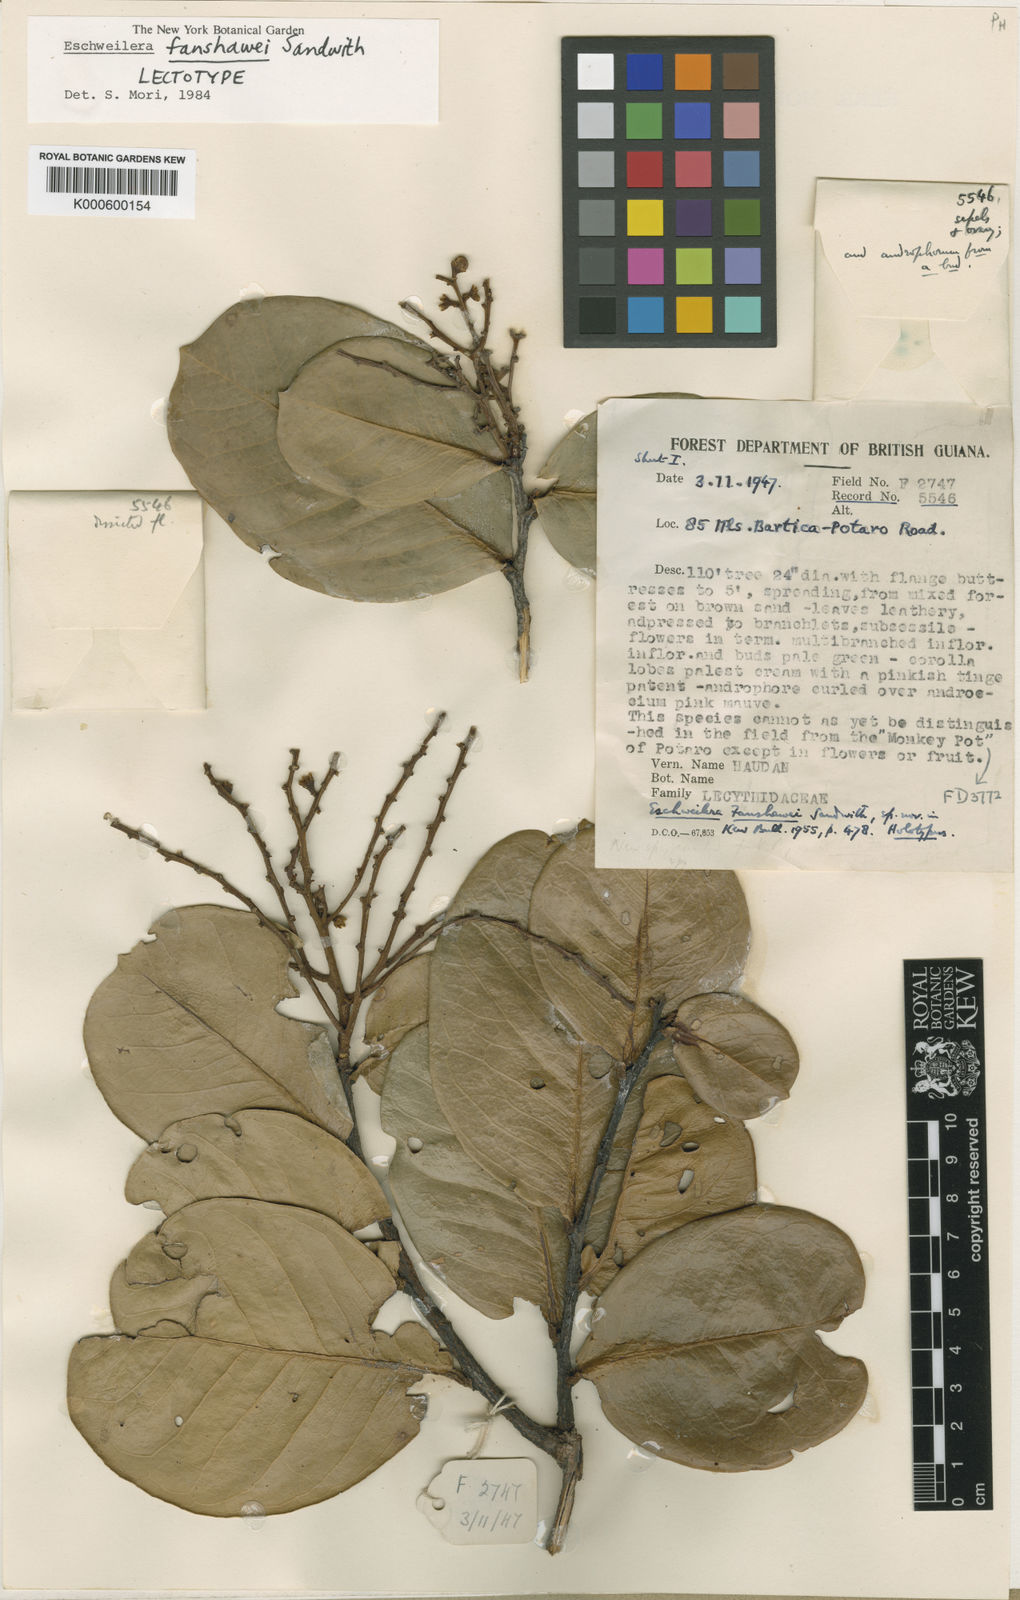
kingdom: Plantae
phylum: Tracheophyta
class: Magnoliopsida
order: Ericales
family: Lecythidaceae
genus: Eschweilera
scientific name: Eschweilera fanshawei
